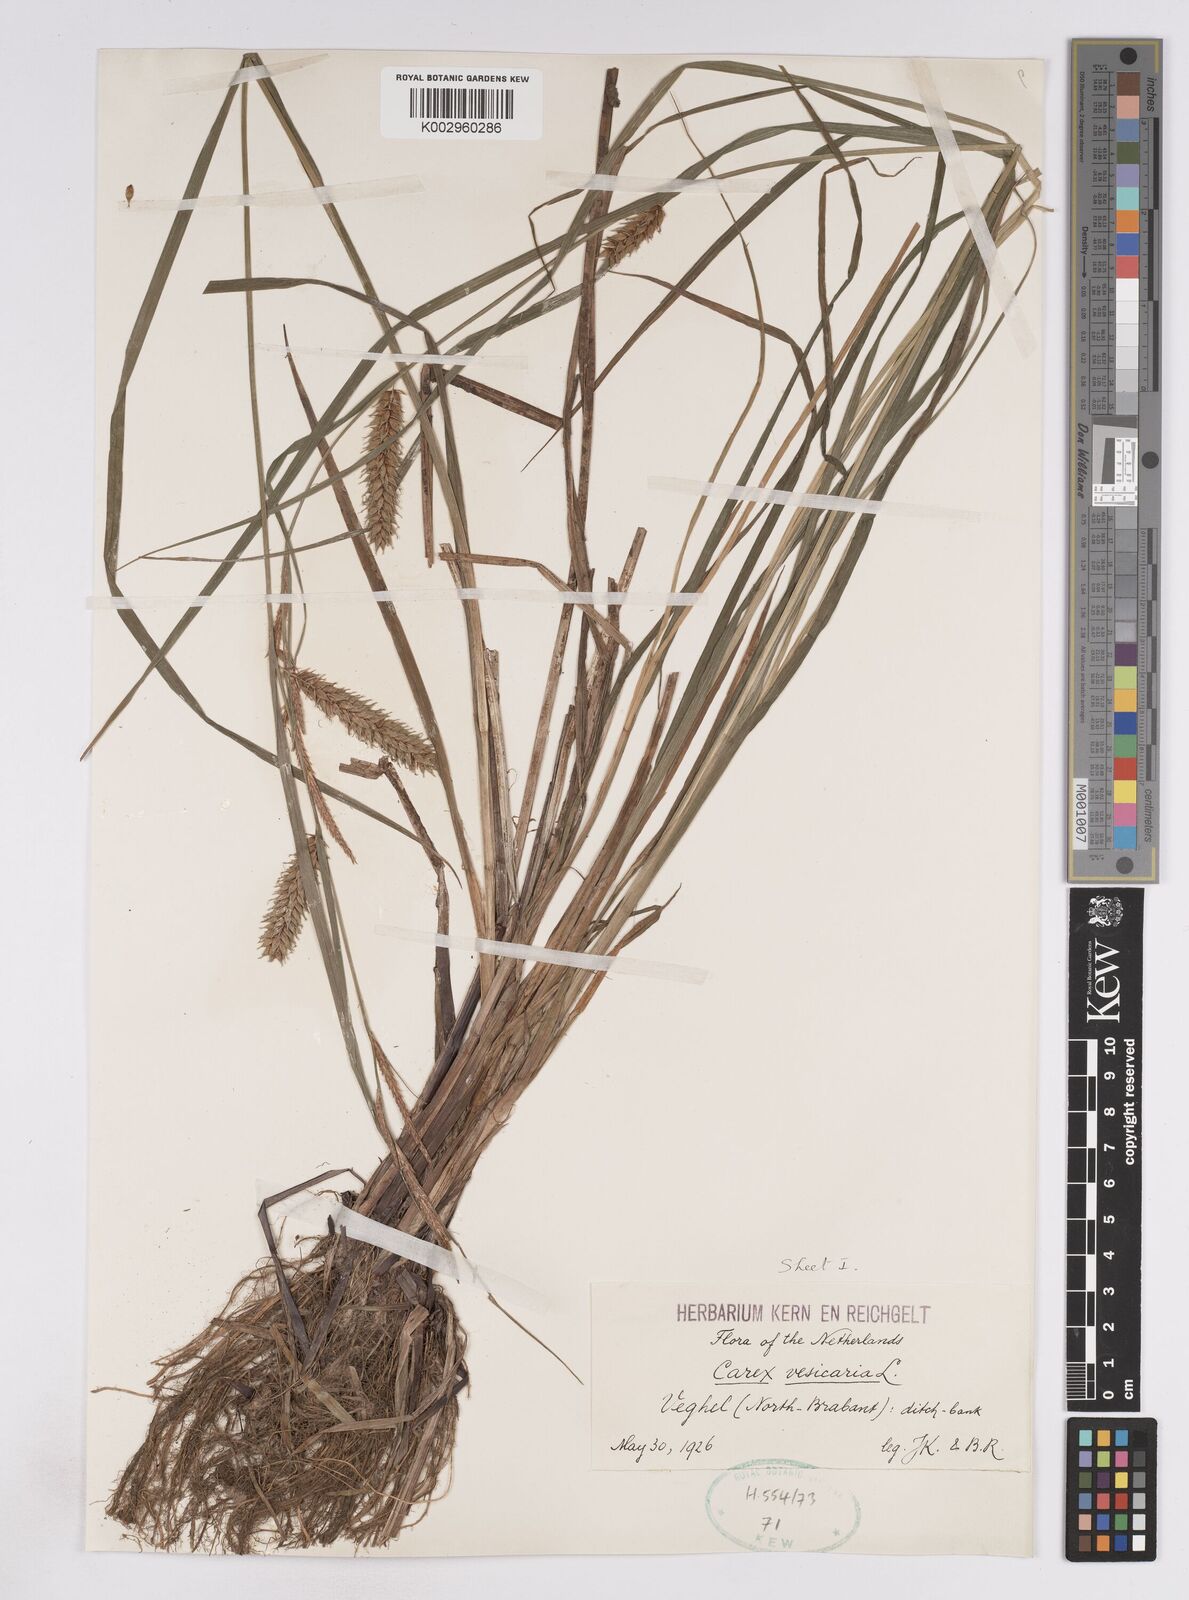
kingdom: Plantae
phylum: Tracheophyta
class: Liliopsida
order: Poales
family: Cyperaceae
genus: Carex
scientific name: Carex vesicaria
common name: Bladder-sedge
